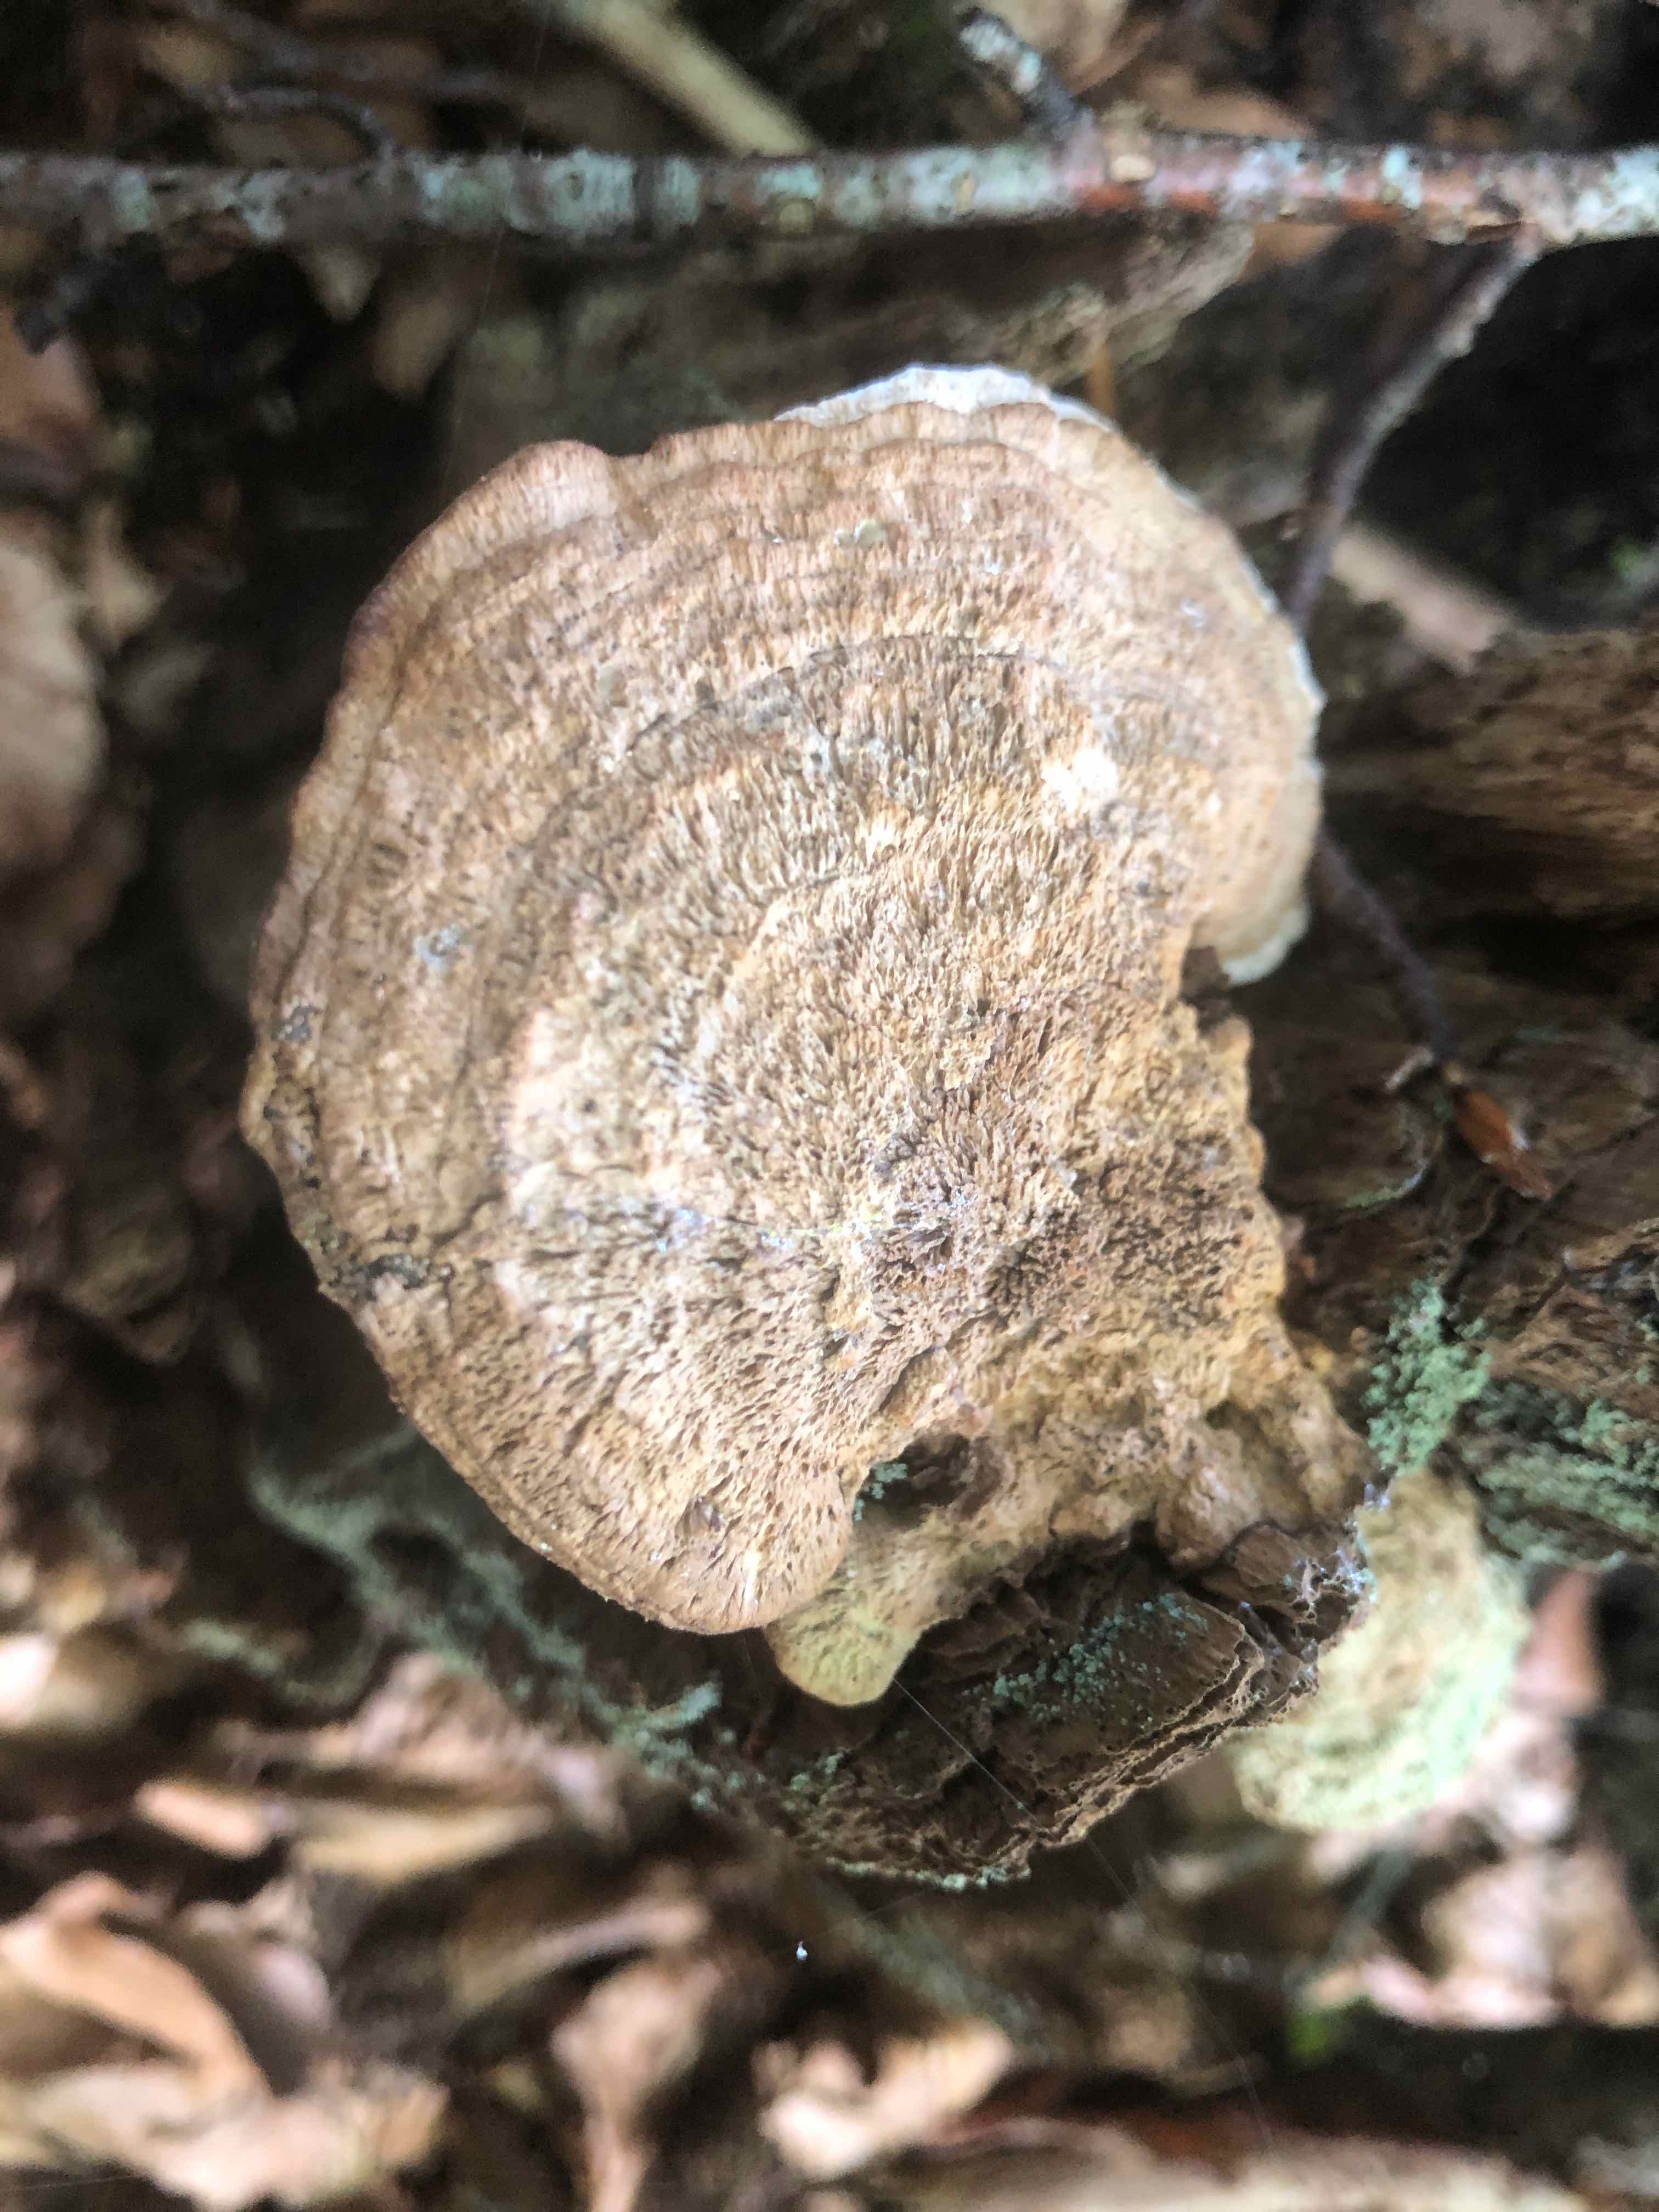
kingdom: Fungi
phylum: Basidiomycota
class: Agaricomycetes
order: Polyporales
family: Fomitopsidaceae
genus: Daedalea
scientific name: Daedalea quercina
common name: ege-labyrintsvamp
